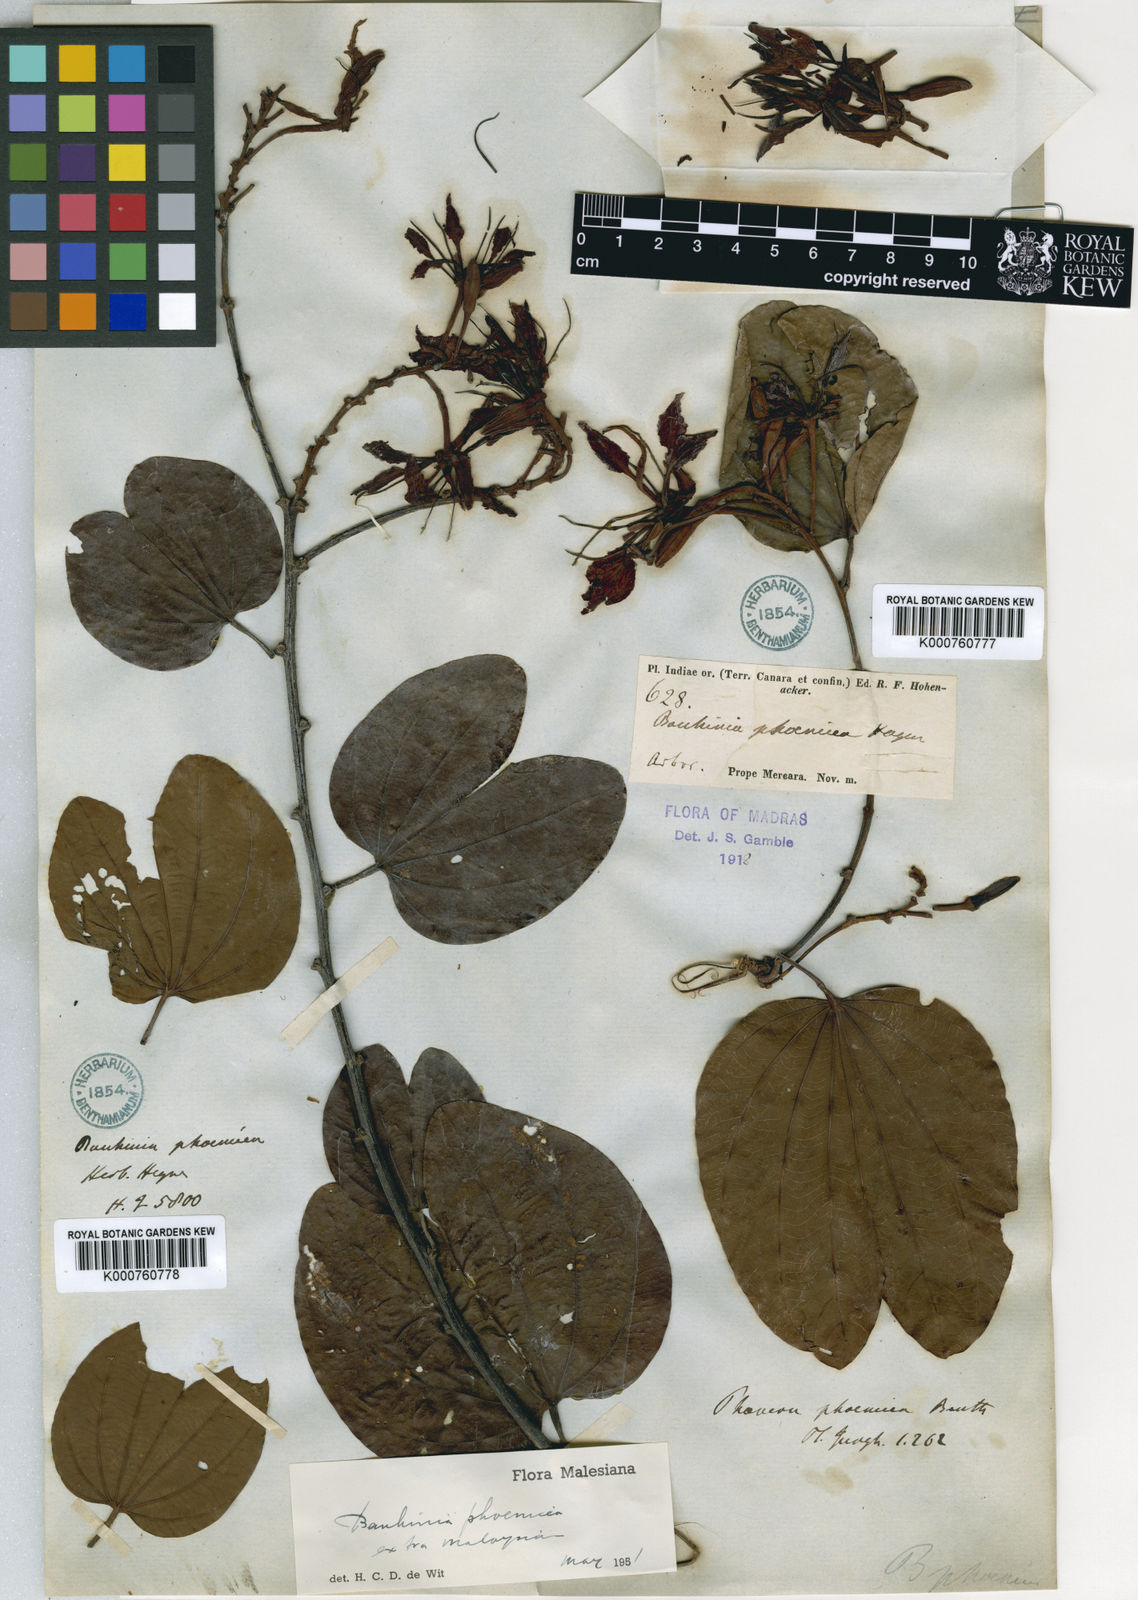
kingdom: Plantae
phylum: Tracheophyta
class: Magnoliopsida
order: Fabales
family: Fabaceae
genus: Bauhinia
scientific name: Bauhinia
